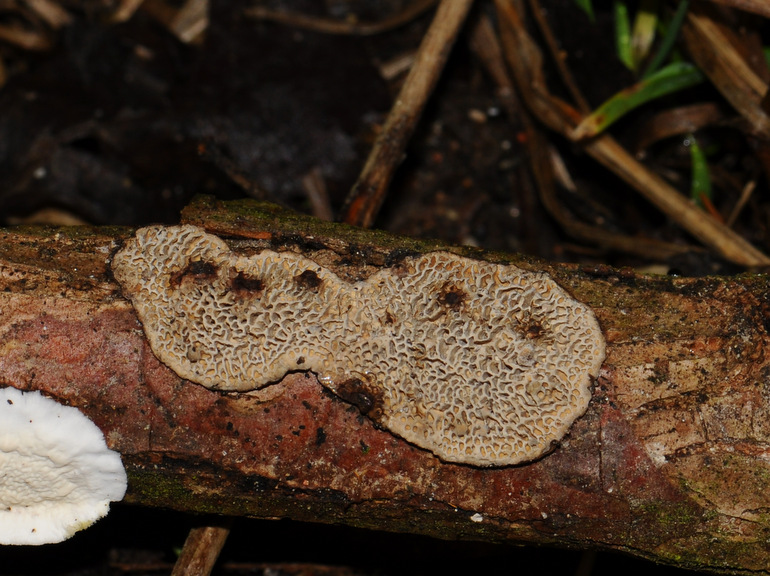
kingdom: Fungi
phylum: Basidiomycota
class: Agaricomycetes
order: Polyporales
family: Polyporaceae
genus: Podofomes
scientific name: Podofomes mollis
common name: blød begporesvamp
